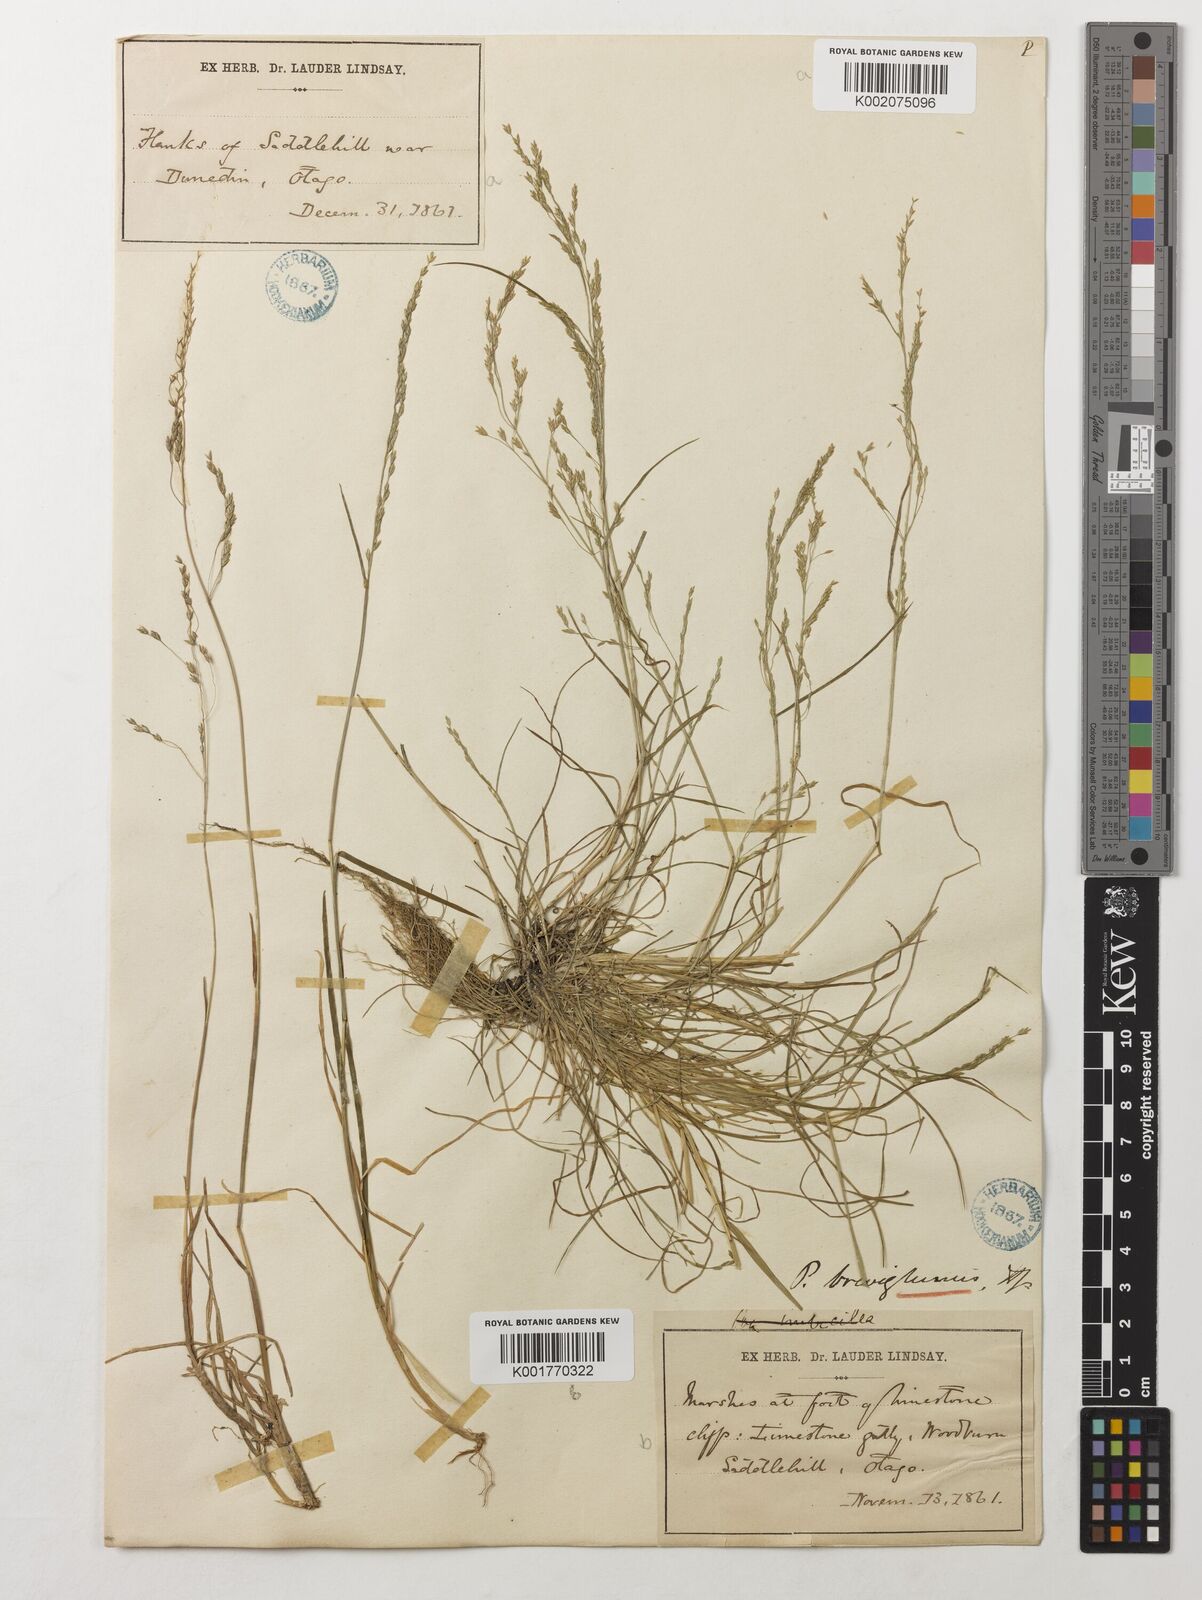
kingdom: Plantae
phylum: Tracheophyta
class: Liliopsida
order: Poales
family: Poaceae
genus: Poa
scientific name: Poa
